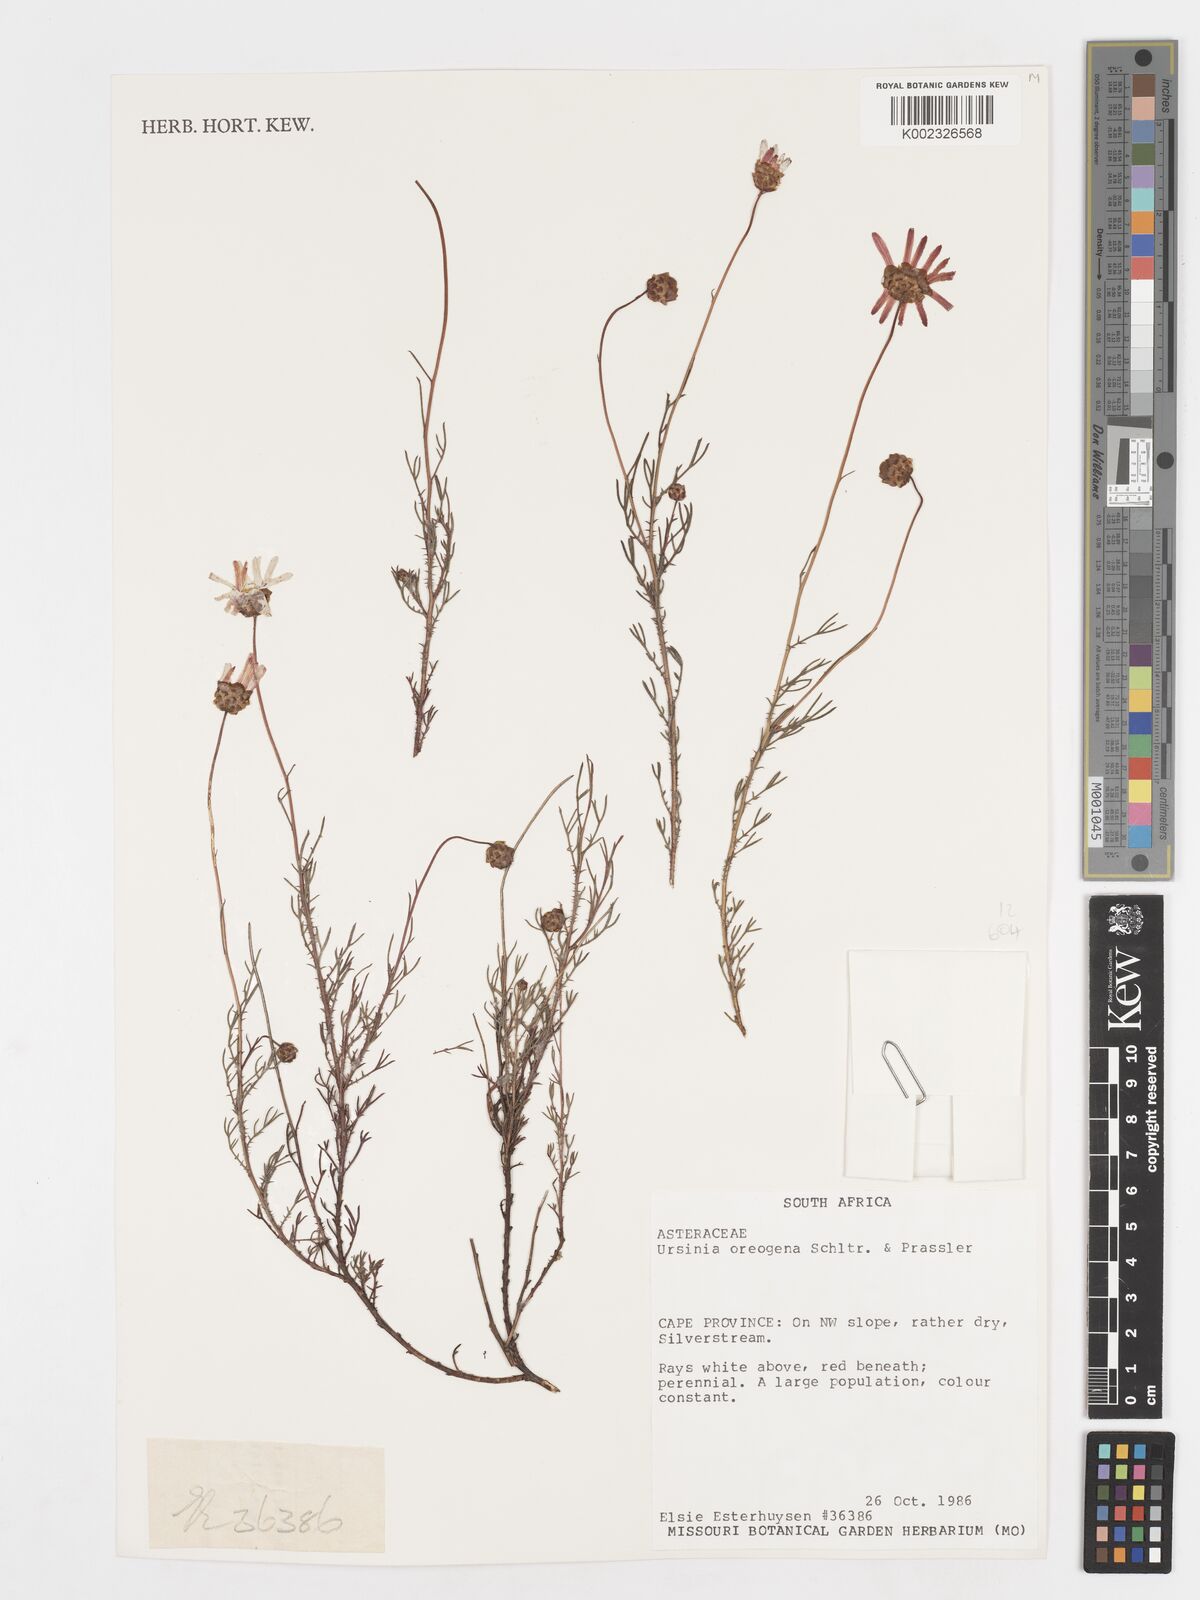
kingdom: Plantae
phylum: Tracheophyta
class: Magnoliopsida
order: Asterales
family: Asteraceae
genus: Ursinia
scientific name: Ursinia oreogena
